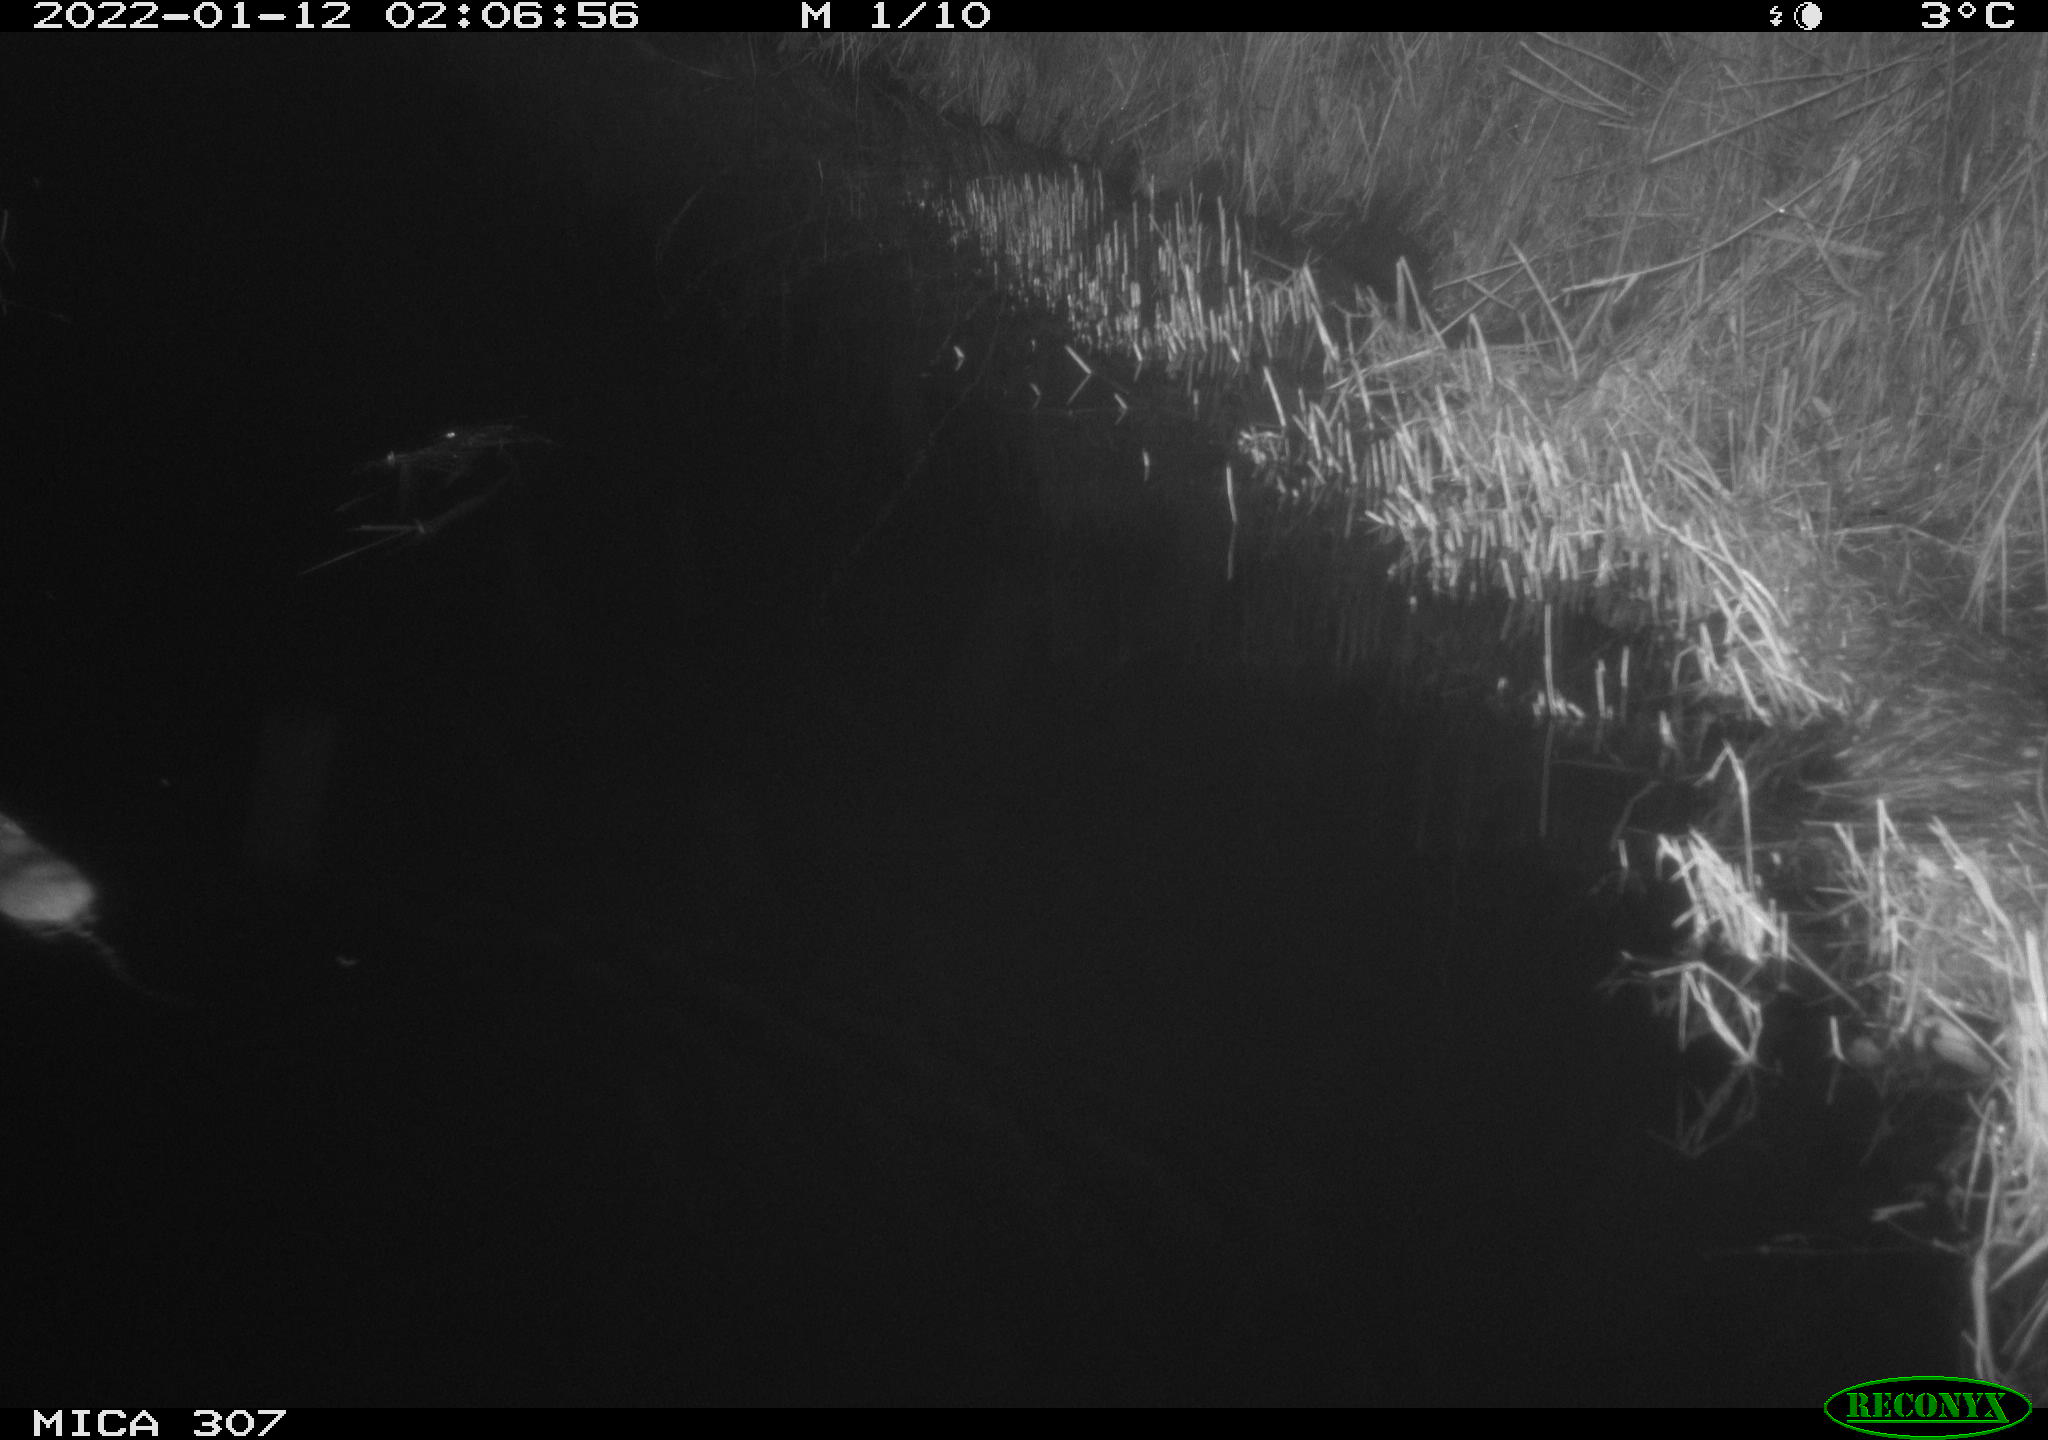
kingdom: Animalia
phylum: Chordata
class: Mammalia
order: Rodentia
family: Muridae
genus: Rattus
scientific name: Rattus norvegicus
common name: Brown rat
